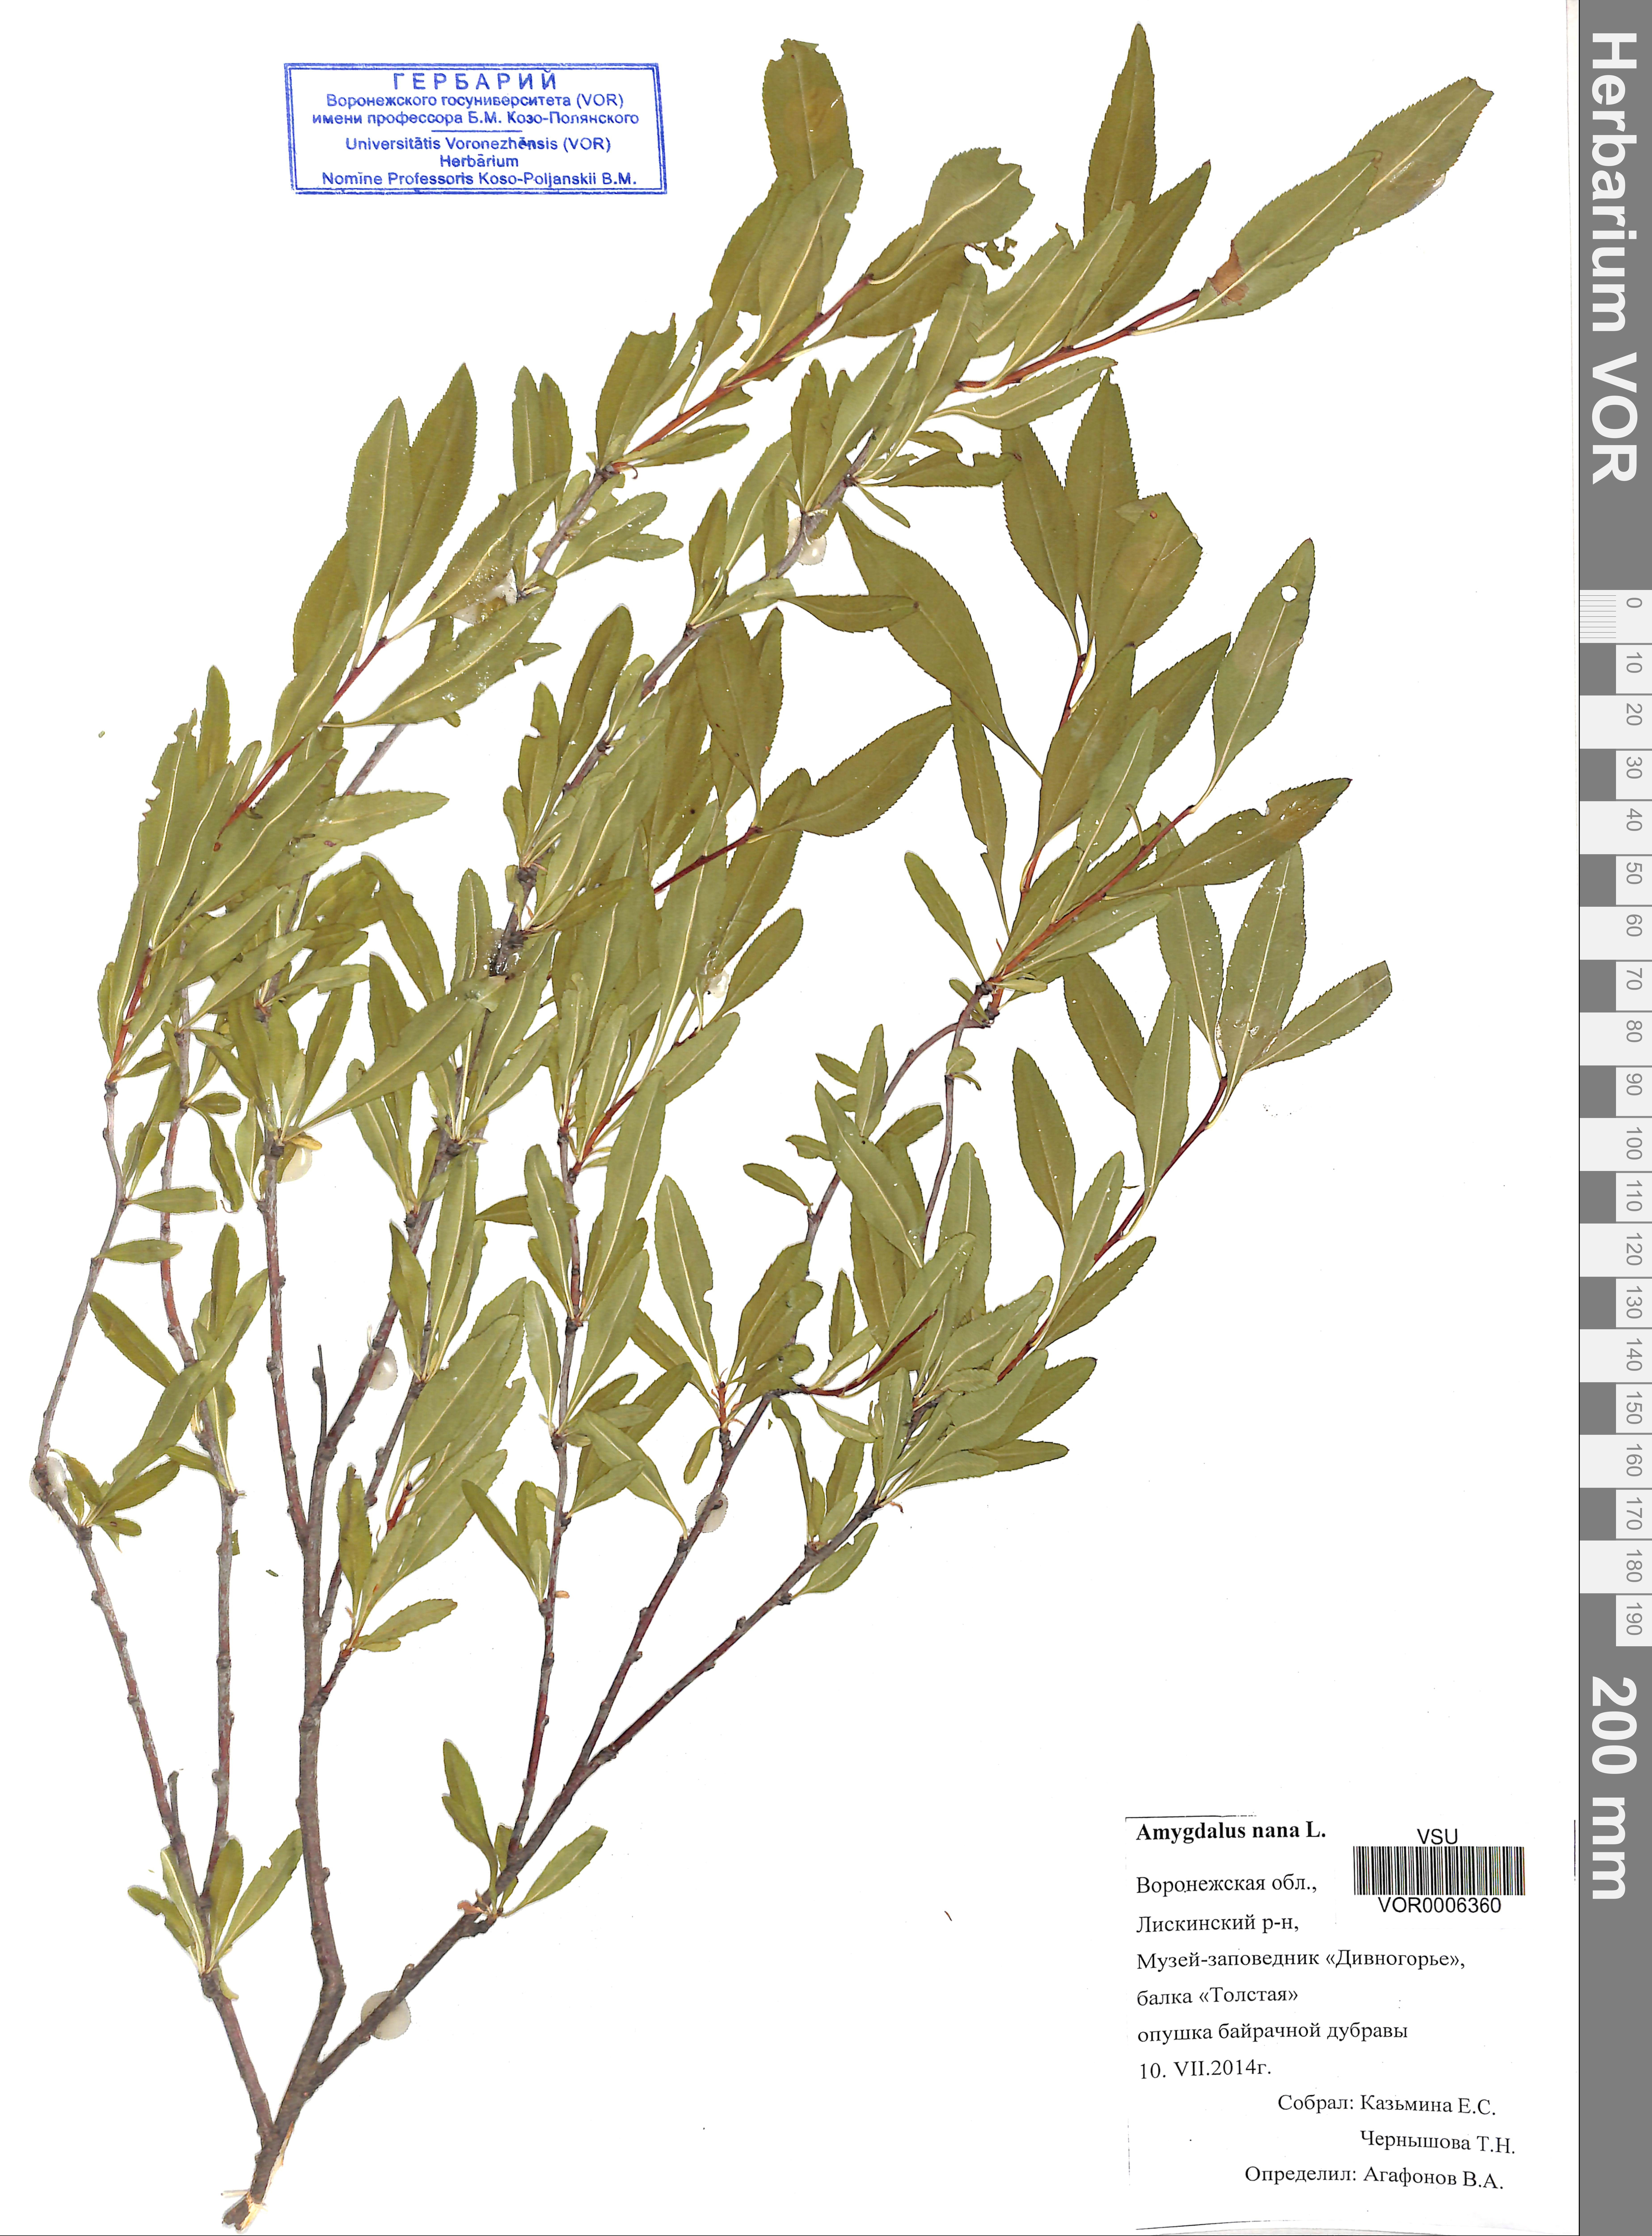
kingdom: Plantae
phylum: Tracheophyta
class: Magnoliopsida
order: Rosales
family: Rosaceae
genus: Prunus
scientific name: Prunus tenella
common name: Dwarf russian almond
